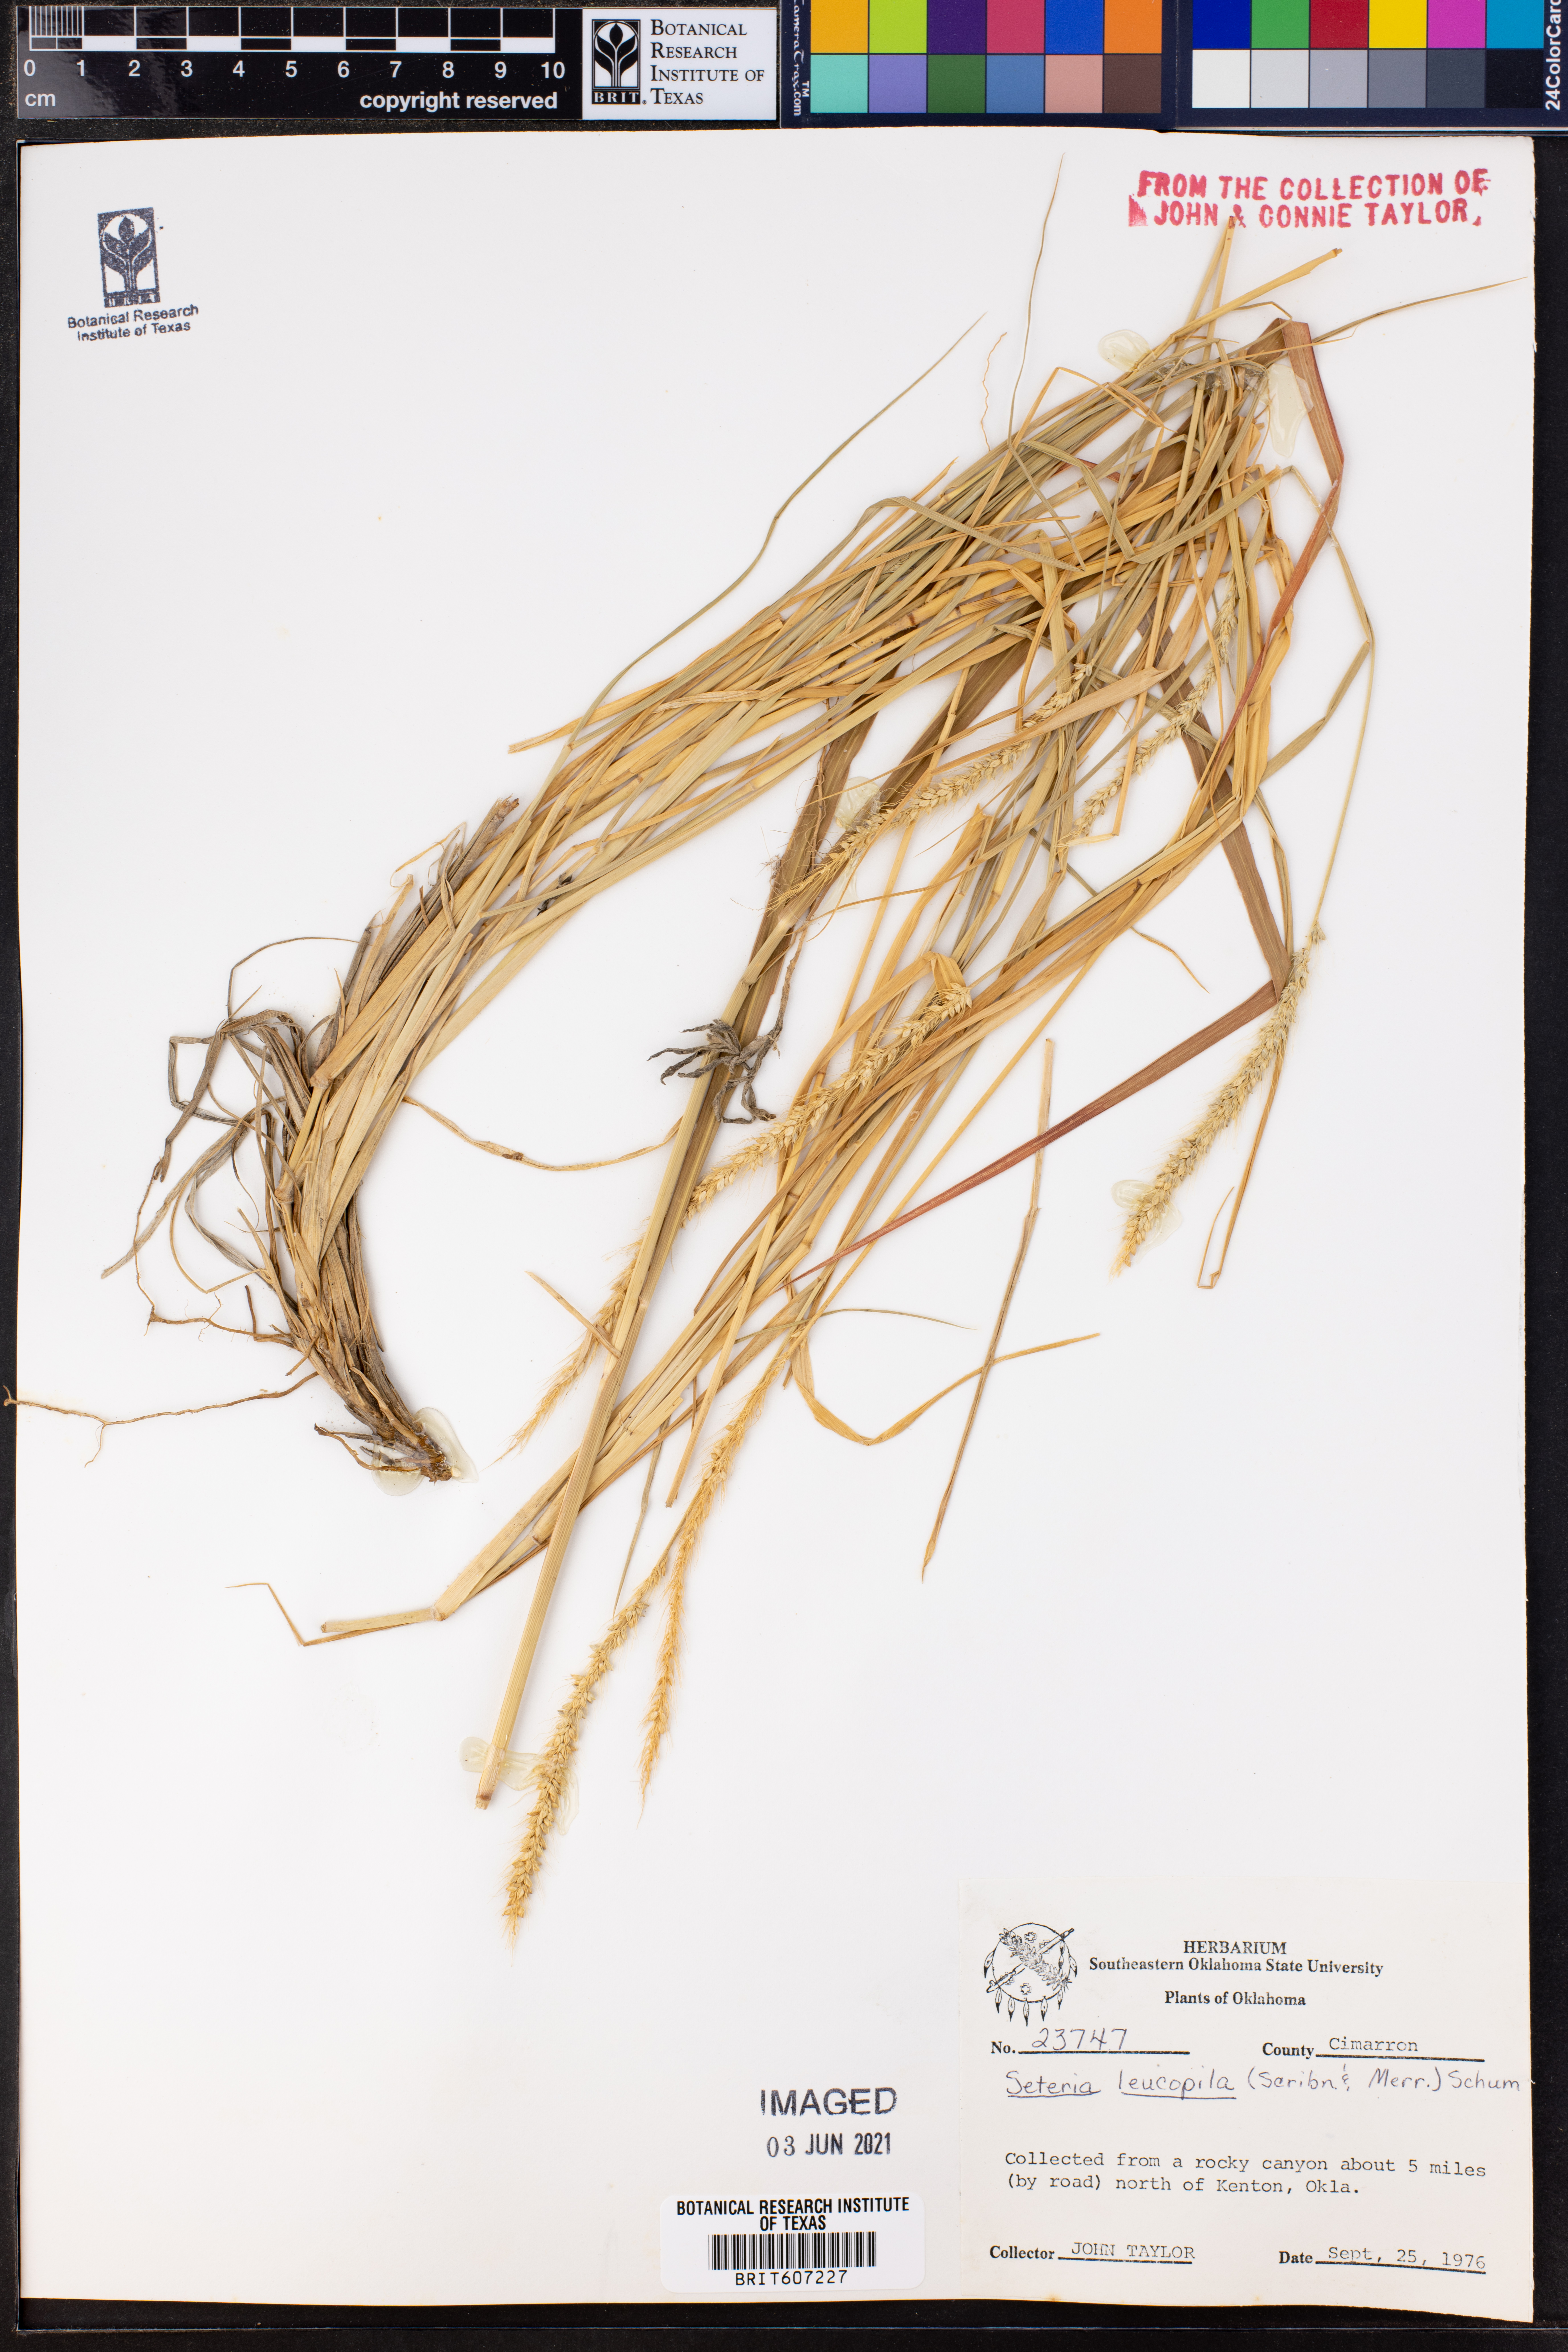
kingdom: Plantae
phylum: Tracheophyta
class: Liliopsida
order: Poales
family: Poaceae
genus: Setaria
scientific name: Setaria leucopila
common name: Plains bristle grass
